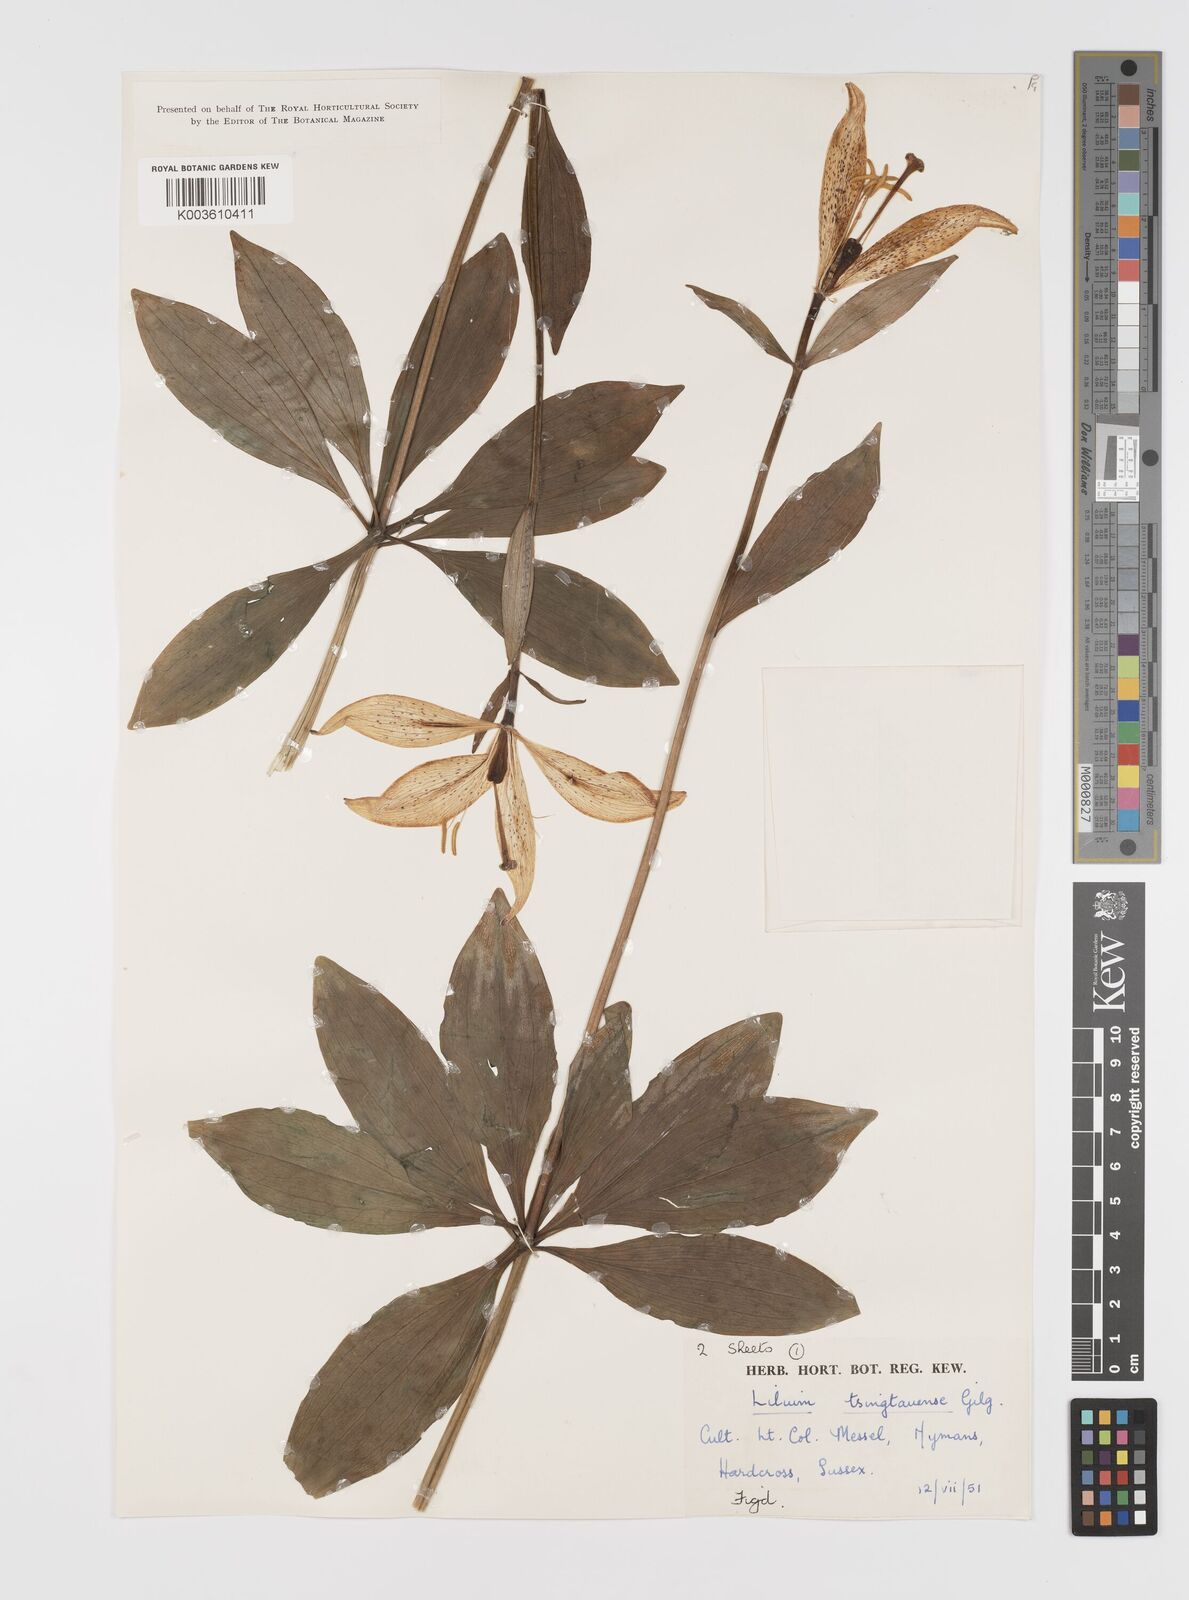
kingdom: Plantae
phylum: Tracheophyta
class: Liliopsida
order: Liliales
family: Liliaceae
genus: Lilium
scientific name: Lilium tsingtauense
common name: Korean wheel lily
